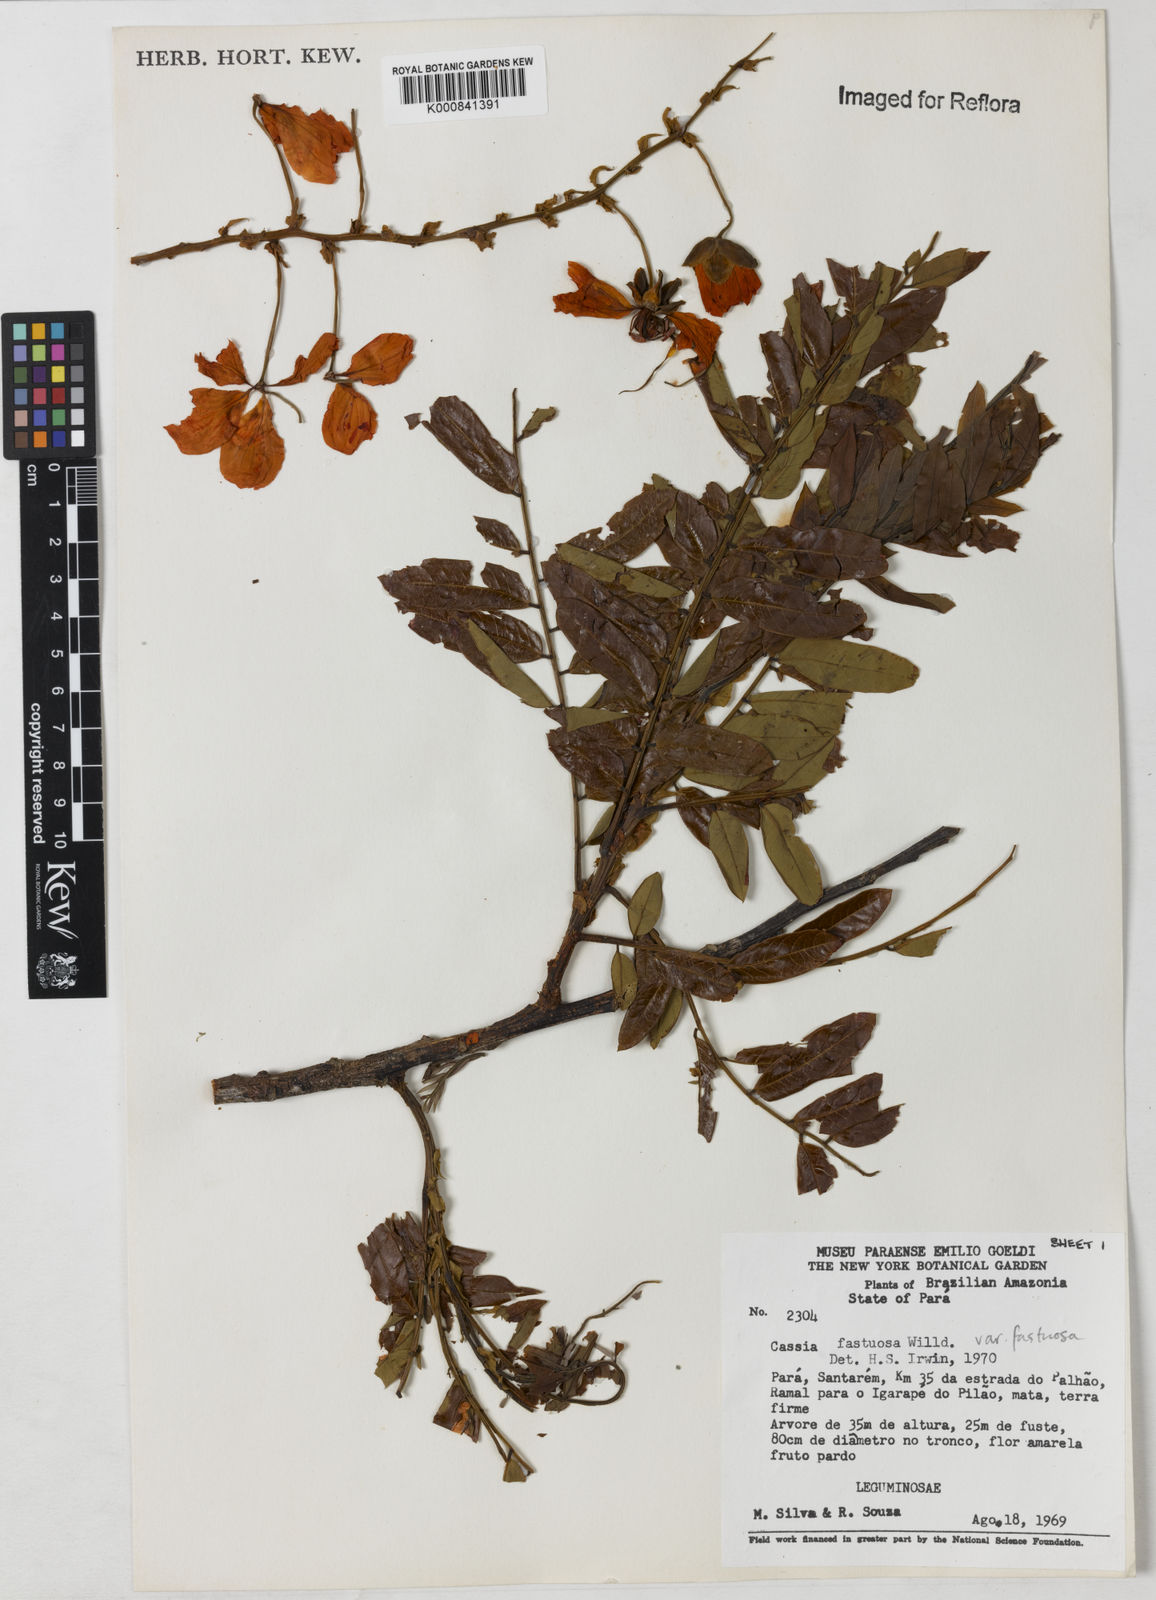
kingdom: Plantae
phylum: Tracheophyta
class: Magnoliopsida
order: Fabales
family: Fabaceae
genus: Cassia
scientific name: Cassia
